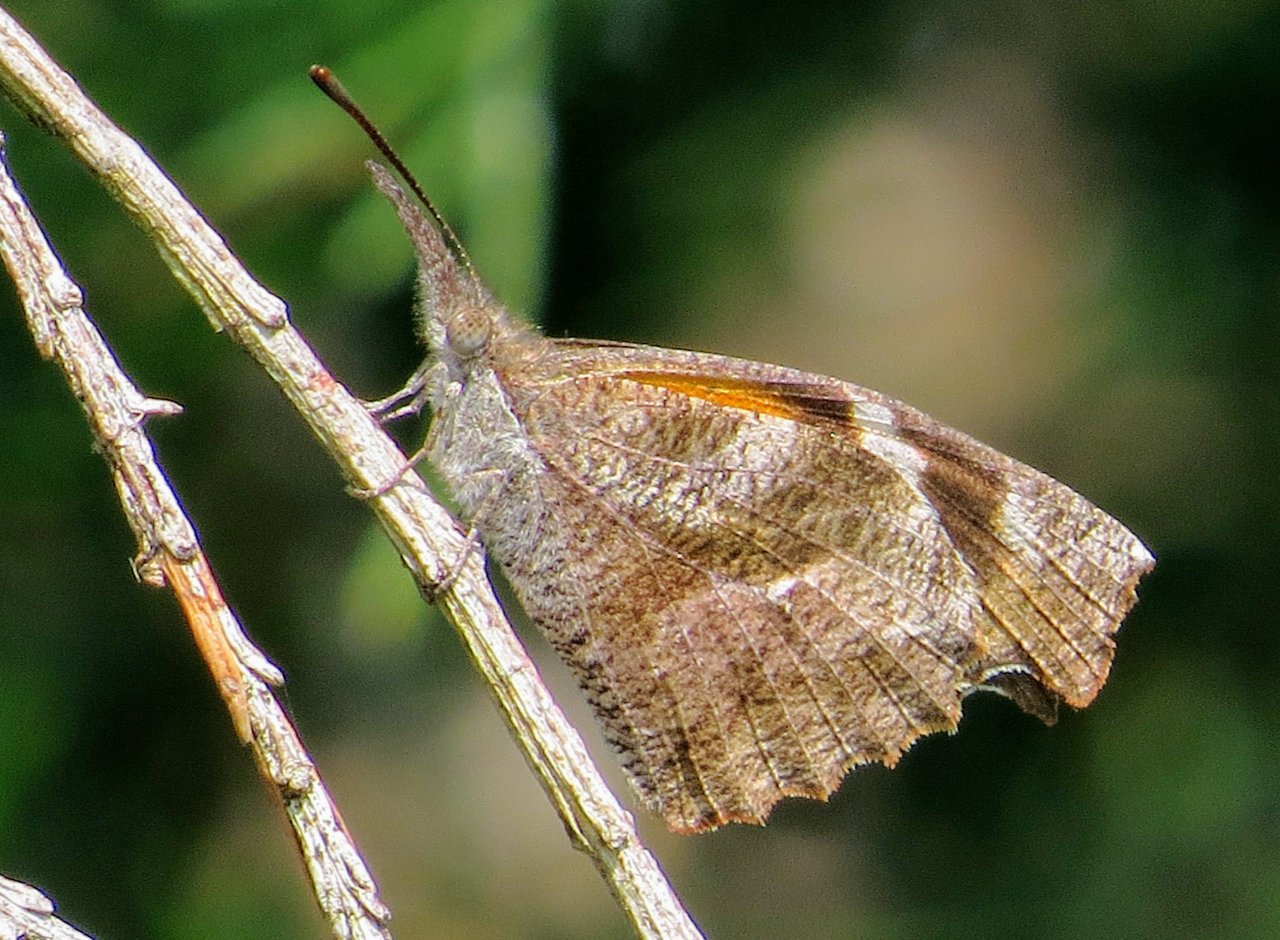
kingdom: Animalia
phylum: Arthropoda
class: Insecta
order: Lepidoptera
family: Nymphalidae
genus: Libytheana
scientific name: Libytheana carinenta
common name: American Snout
